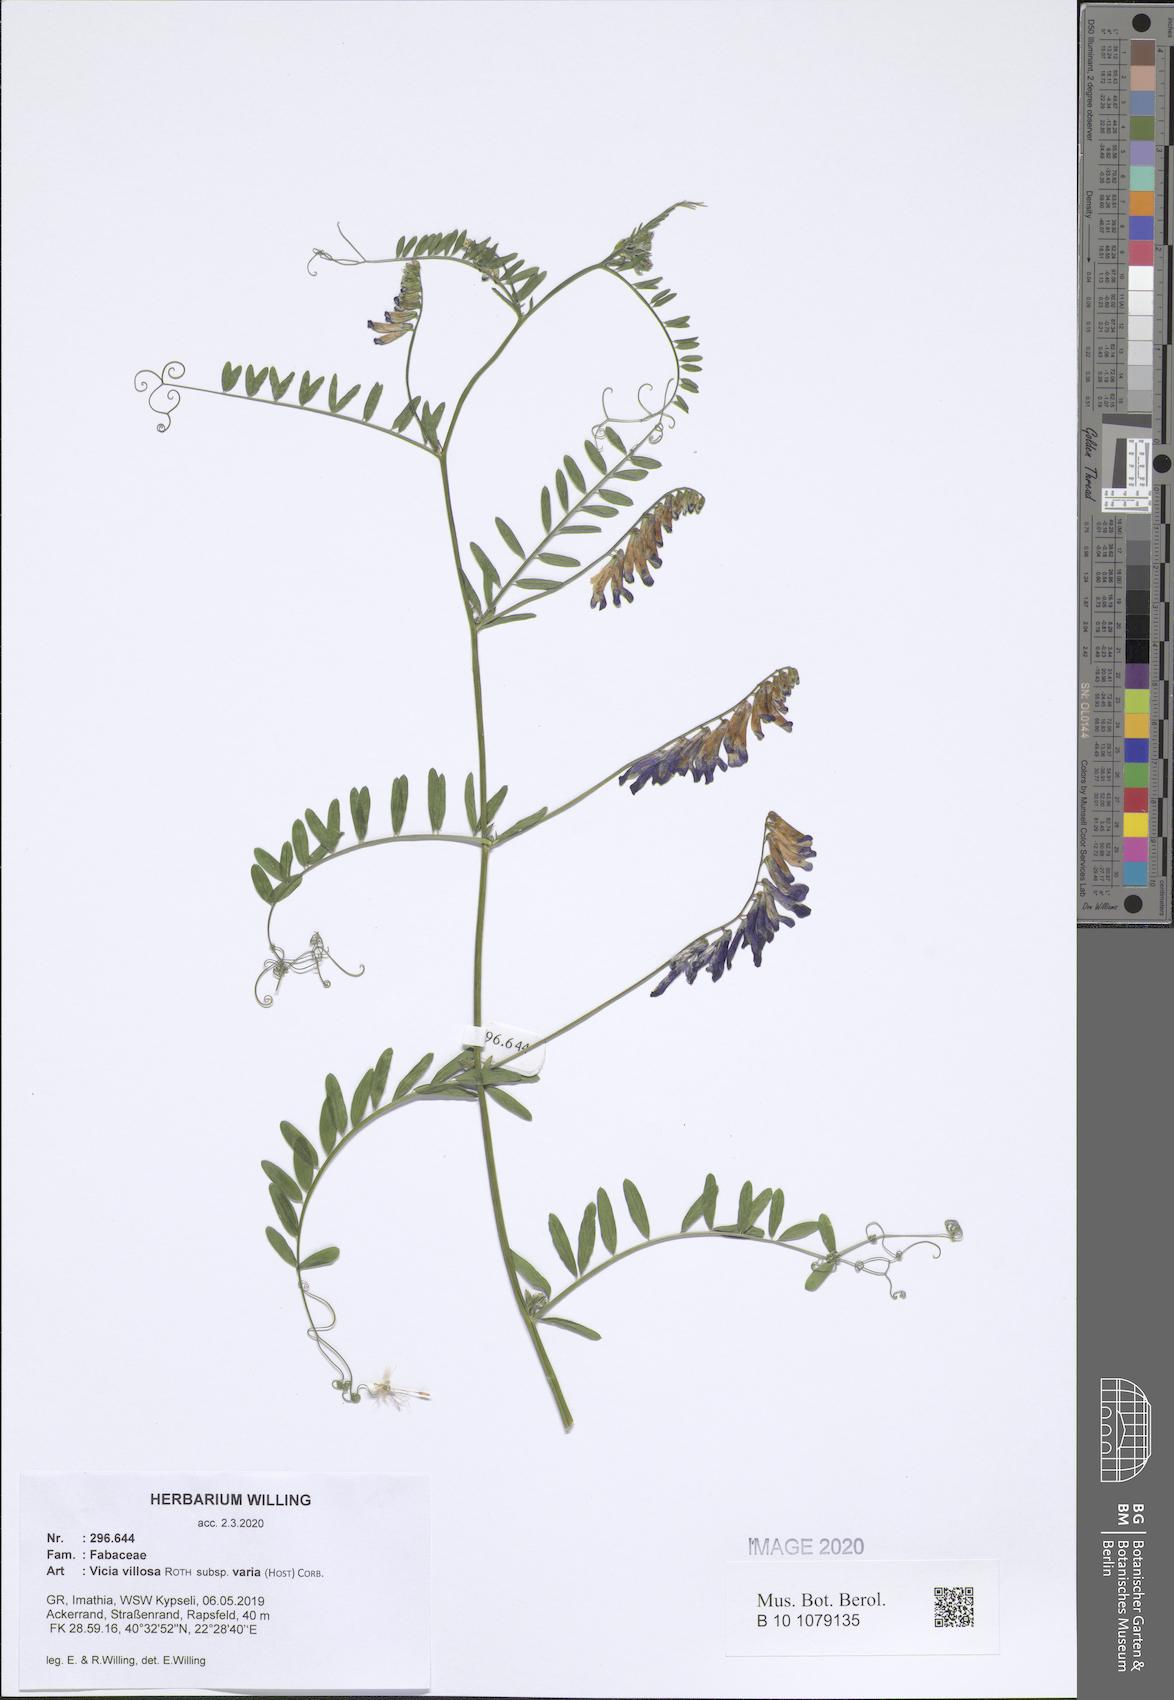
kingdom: Plantae
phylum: Tracheophyta
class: Magnoliopsida
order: Fabales
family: Fabaceae
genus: Vicia
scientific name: Vicia villosa
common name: Fodder vetch
